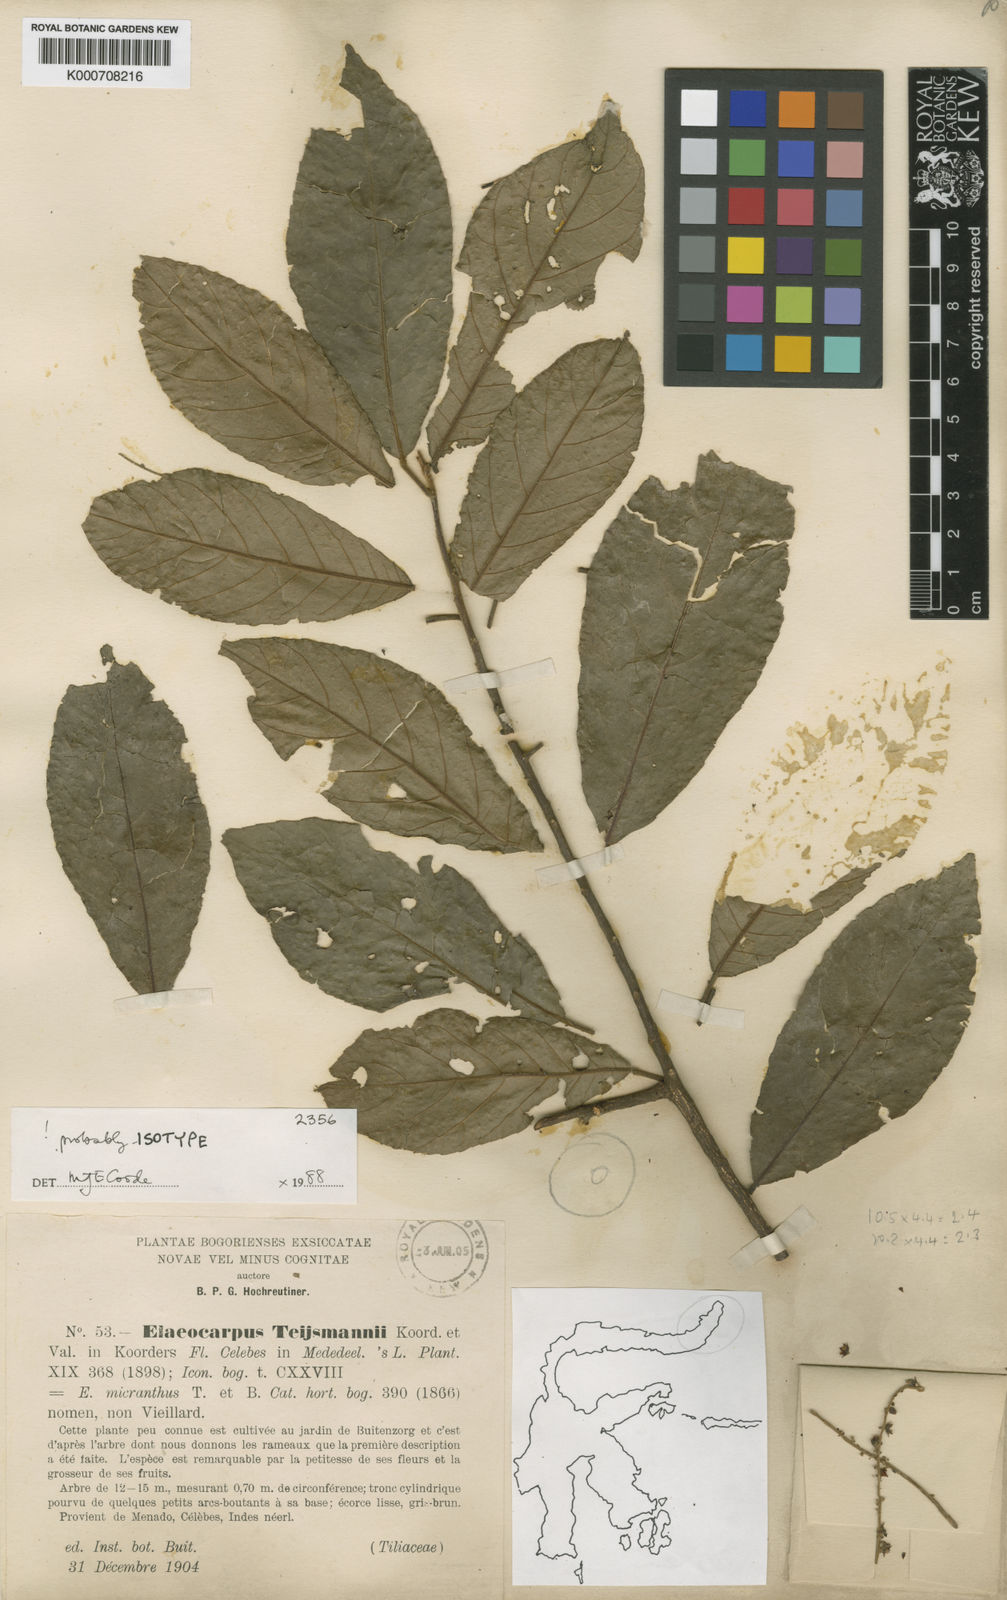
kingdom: Plantae
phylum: Tracheophyta
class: Magnoliopsida
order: Oxalidales
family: Elaeocarpaceae
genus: Elaeocarpus
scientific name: Elaeocarpus teysmannii
